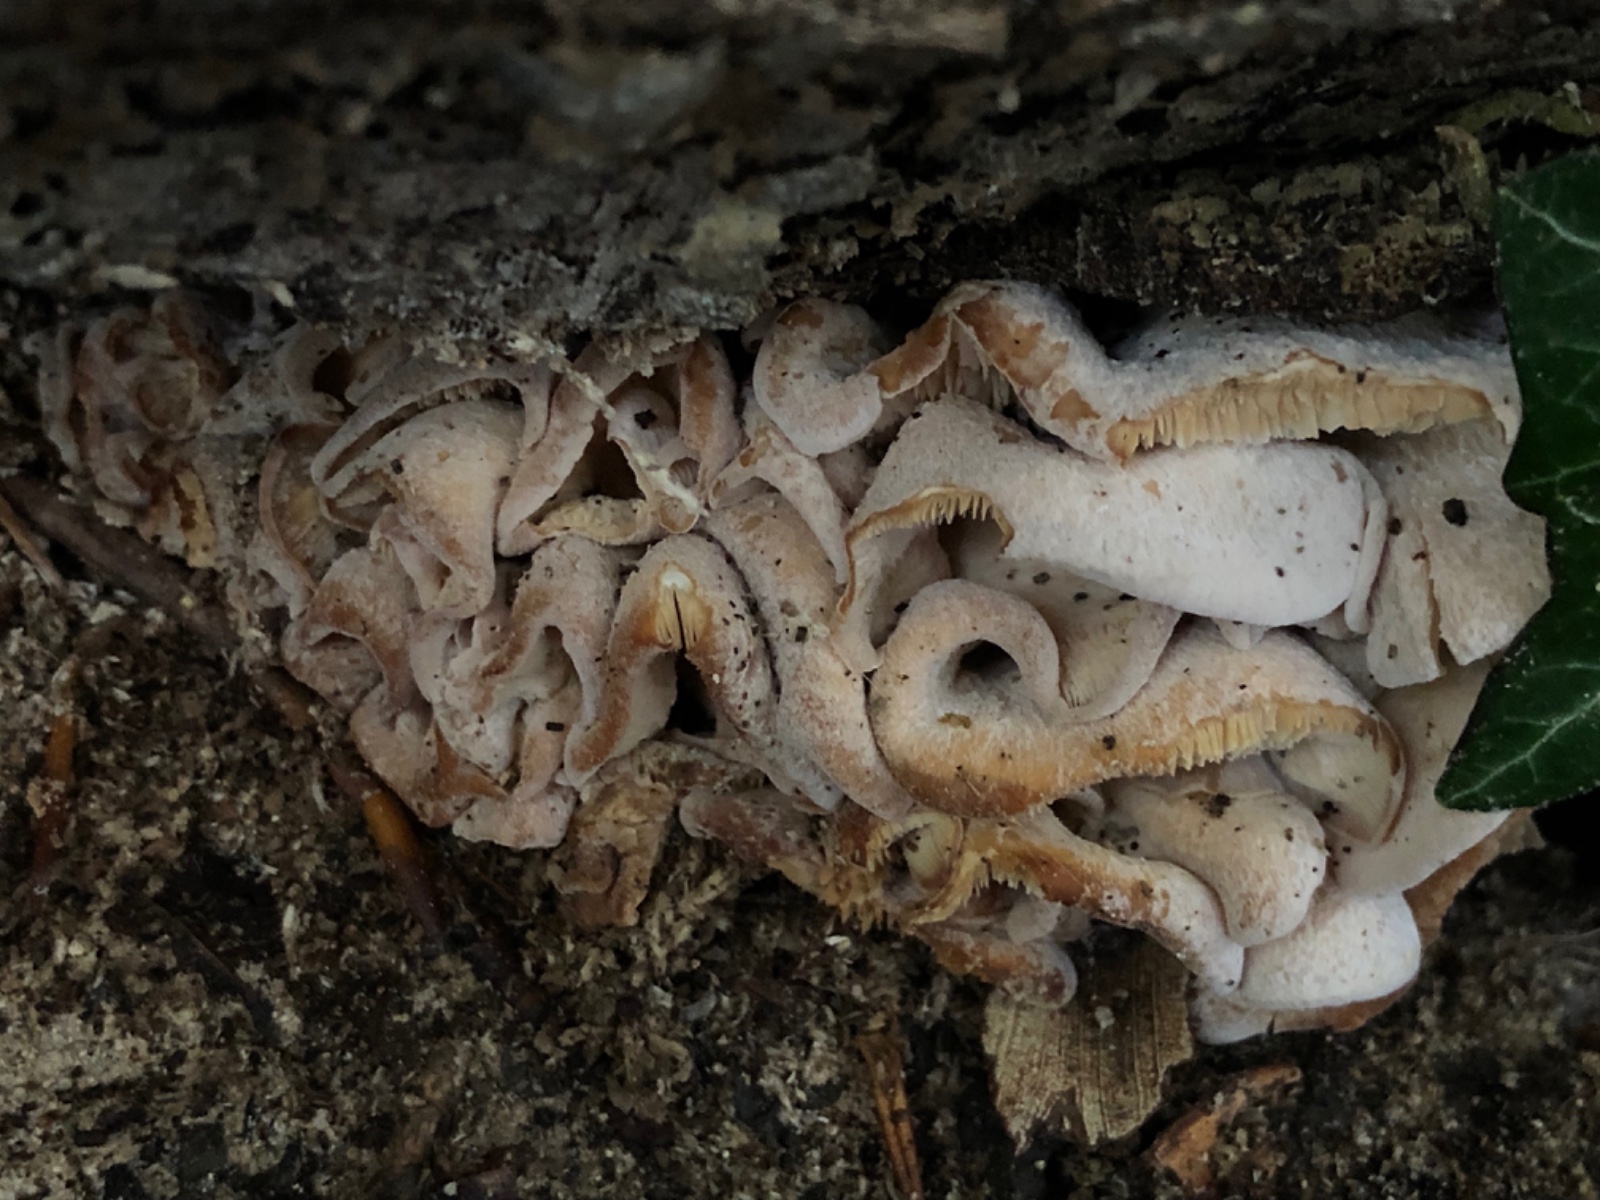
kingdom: Fungi
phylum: Basidiomycota
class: Agaricomycetes
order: Russulales
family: Auriscalpiaceae
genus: Lentinellus
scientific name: Lentinellus ursinus
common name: børstehåret savbladhat
